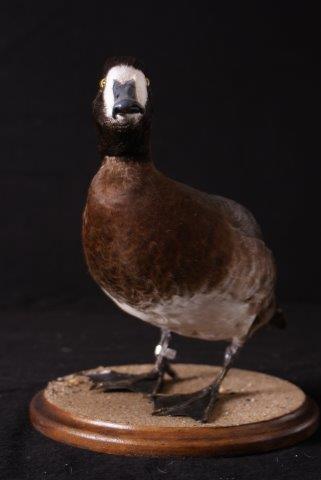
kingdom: Animalia
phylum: Chordata
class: Aves
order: Anseriformes
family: Anatidae
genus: Aythya
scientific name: Aythya marila
